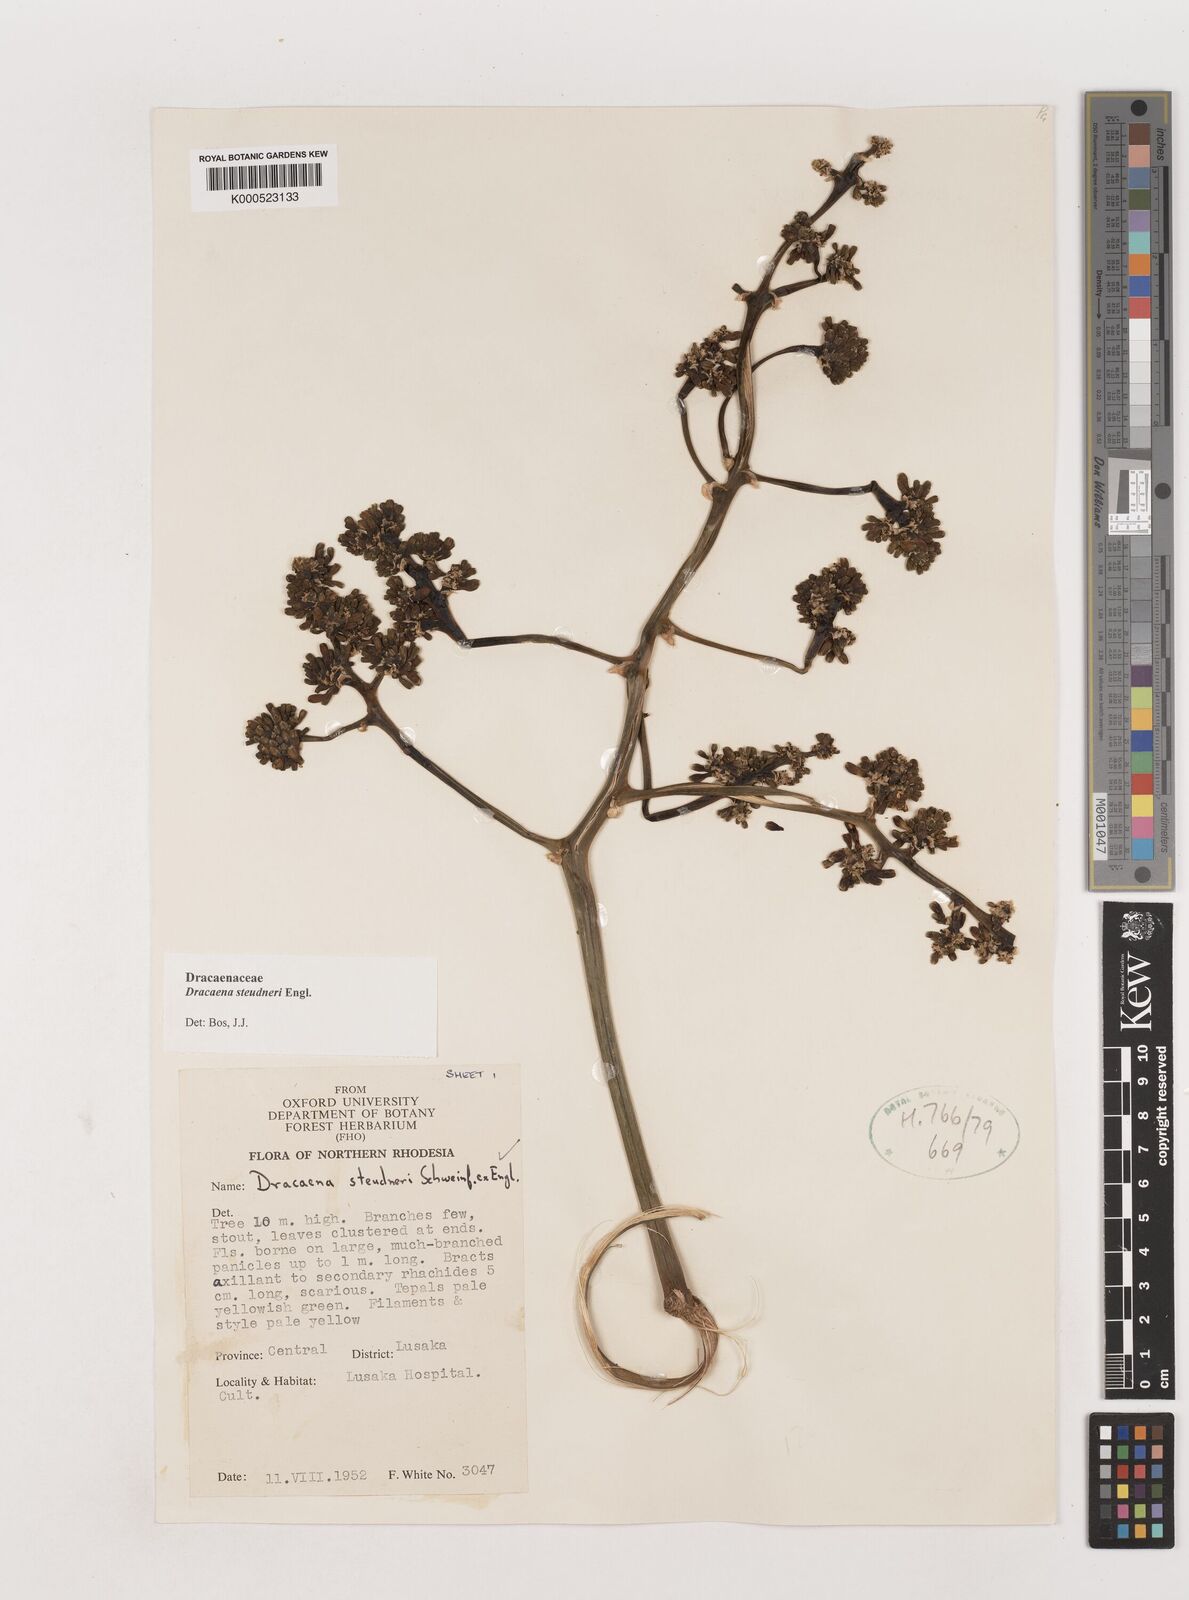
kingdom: Plantae
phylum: Tracheophyta
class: Liliopsida
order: Asparagales
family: Asparagaceae
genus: Dracaena
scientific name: Dracaena steudneri
